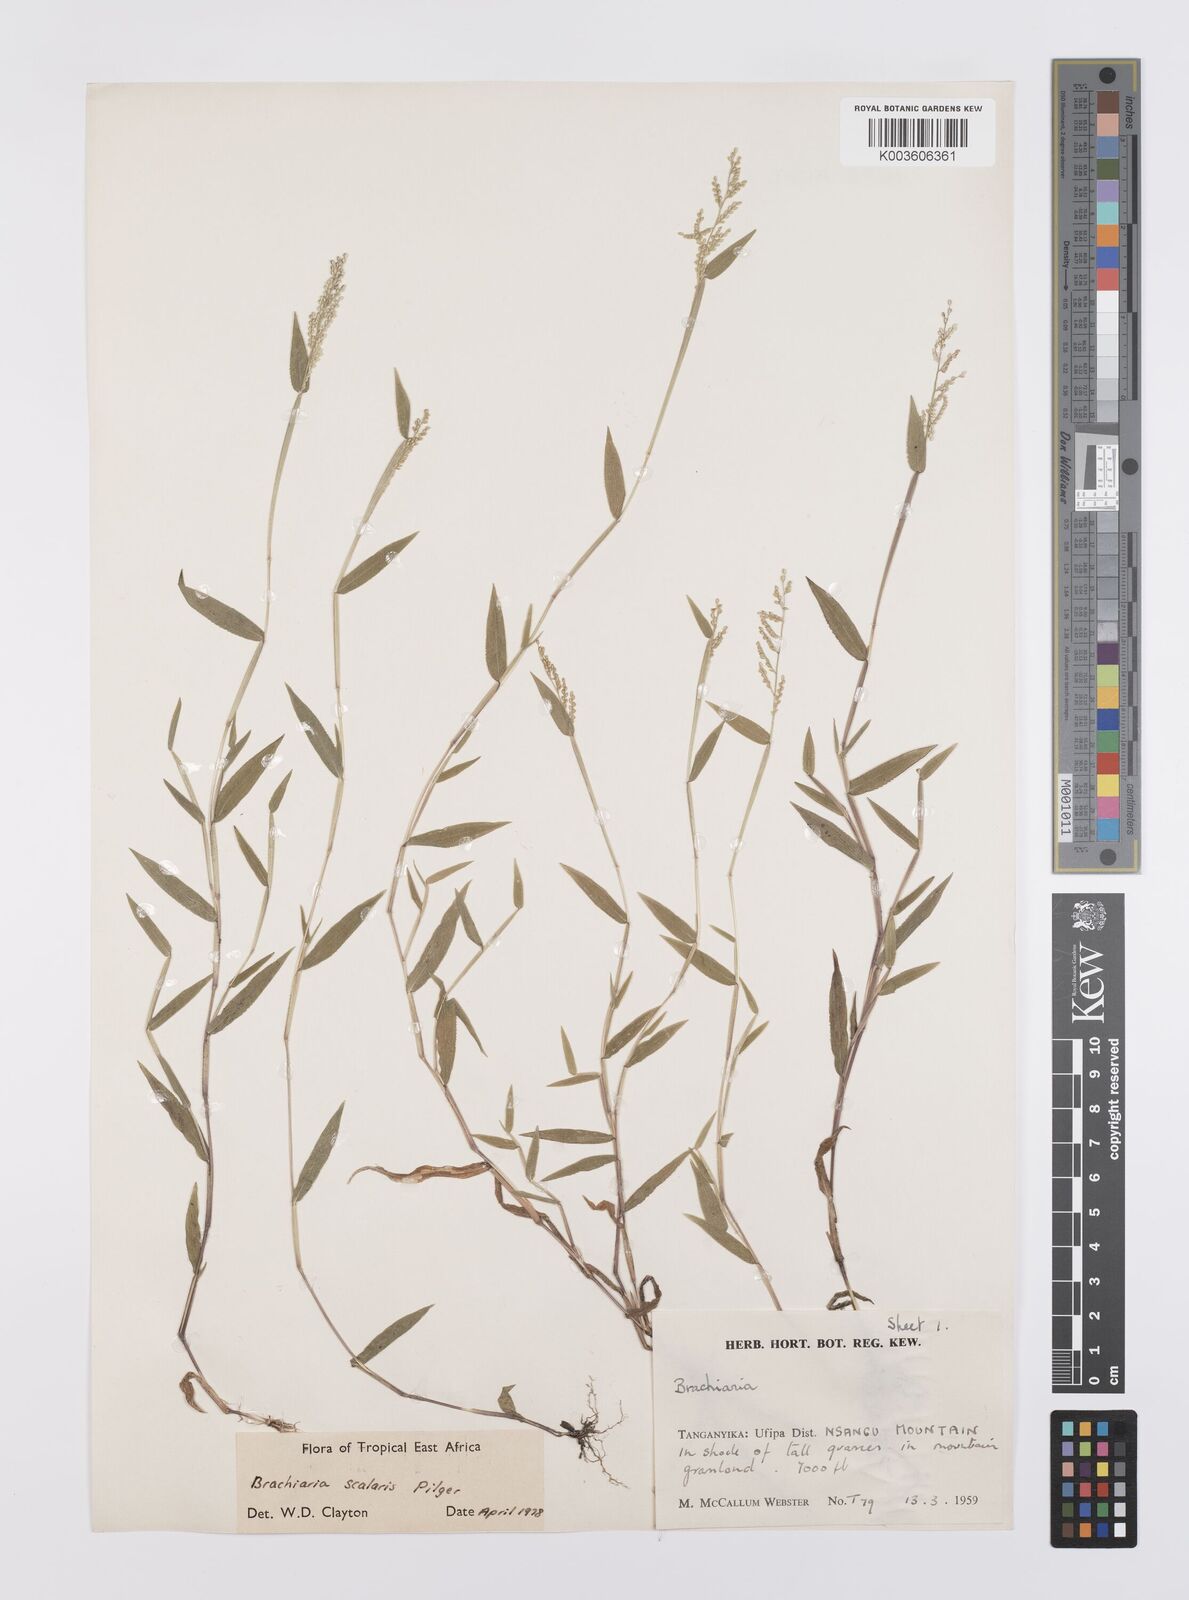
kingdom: Plantae
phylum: Tracheophyta
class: Liliopsida
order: Poales
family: Poaceae
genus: Urochloa
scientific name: Urochloa comata
